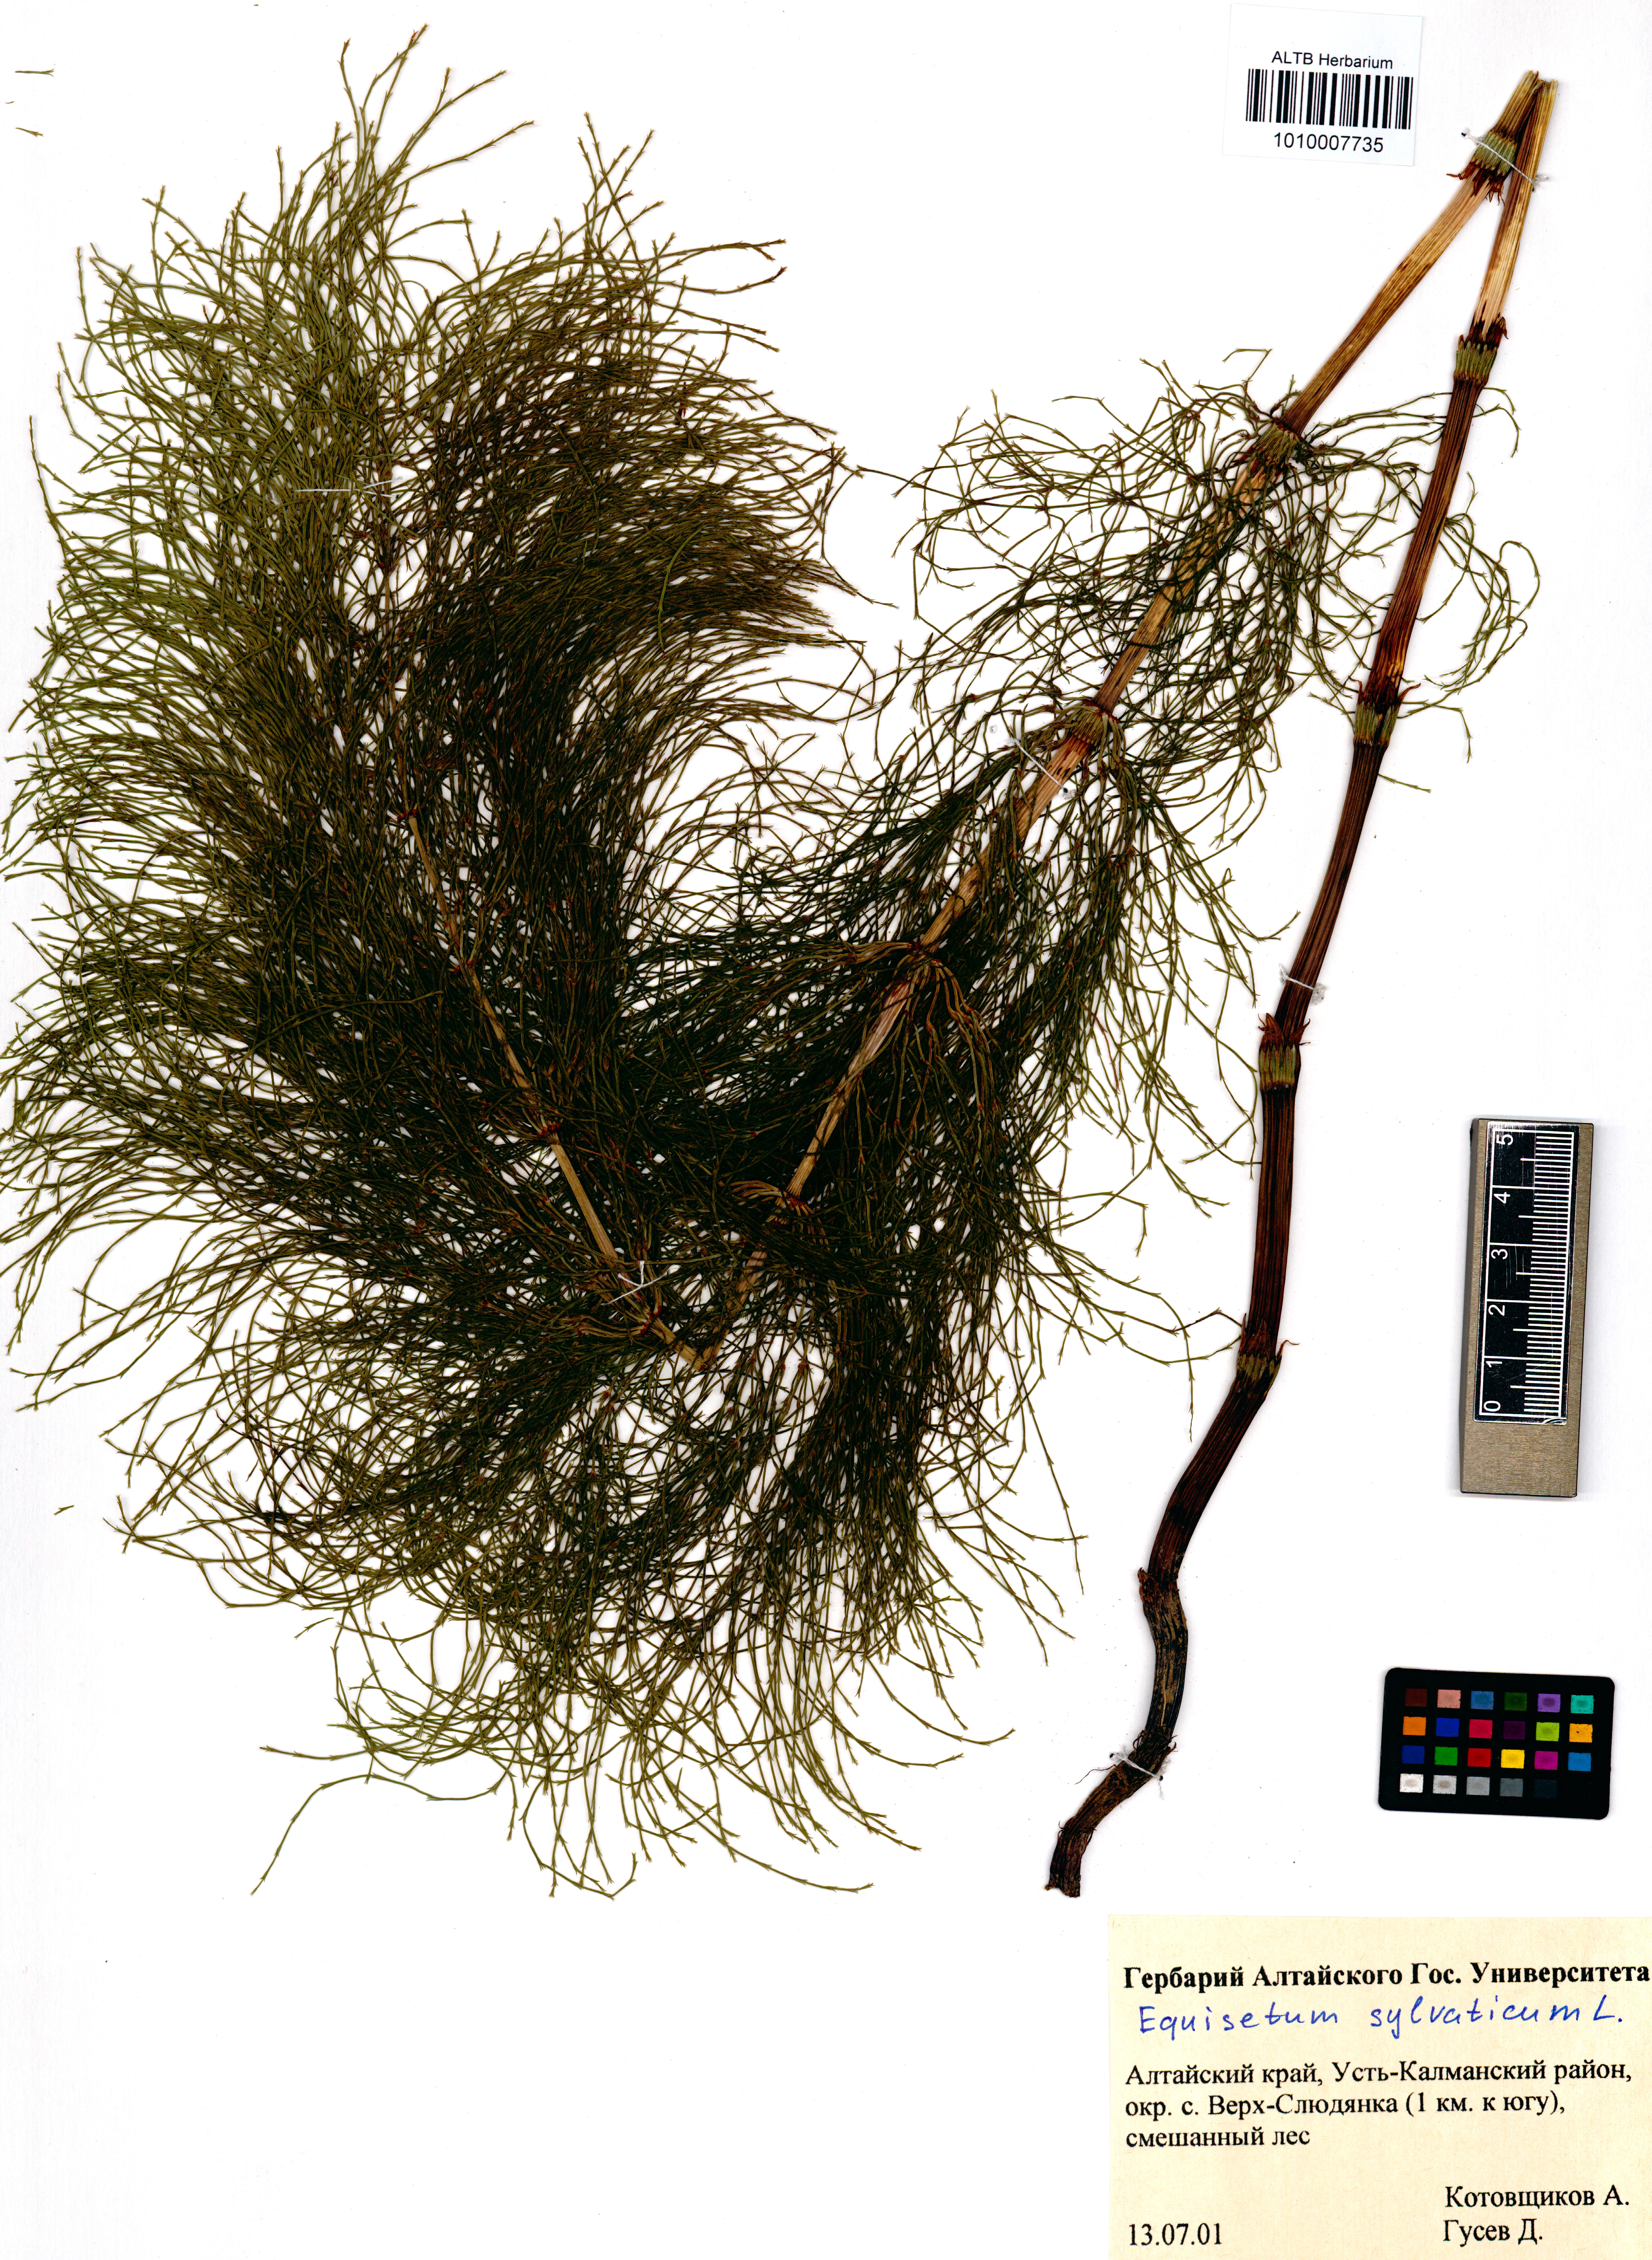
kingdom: Plantae
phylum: Tracheophyta
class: Polypodiopsida
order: Equisetales
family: Equisetaceae
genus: Equisetum
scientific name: Equisetum sylvaticum
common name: Wood horsetail
